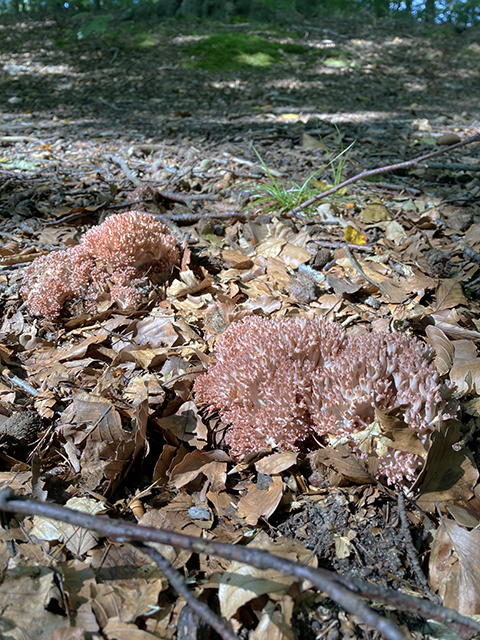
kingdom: Fungi
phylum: Basidiomycota
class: Agaricomycetes
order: Gomphales
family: Gomphaceae
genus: Ramaria
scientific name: Ramaria botrytis
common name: drue-koralsvamp
